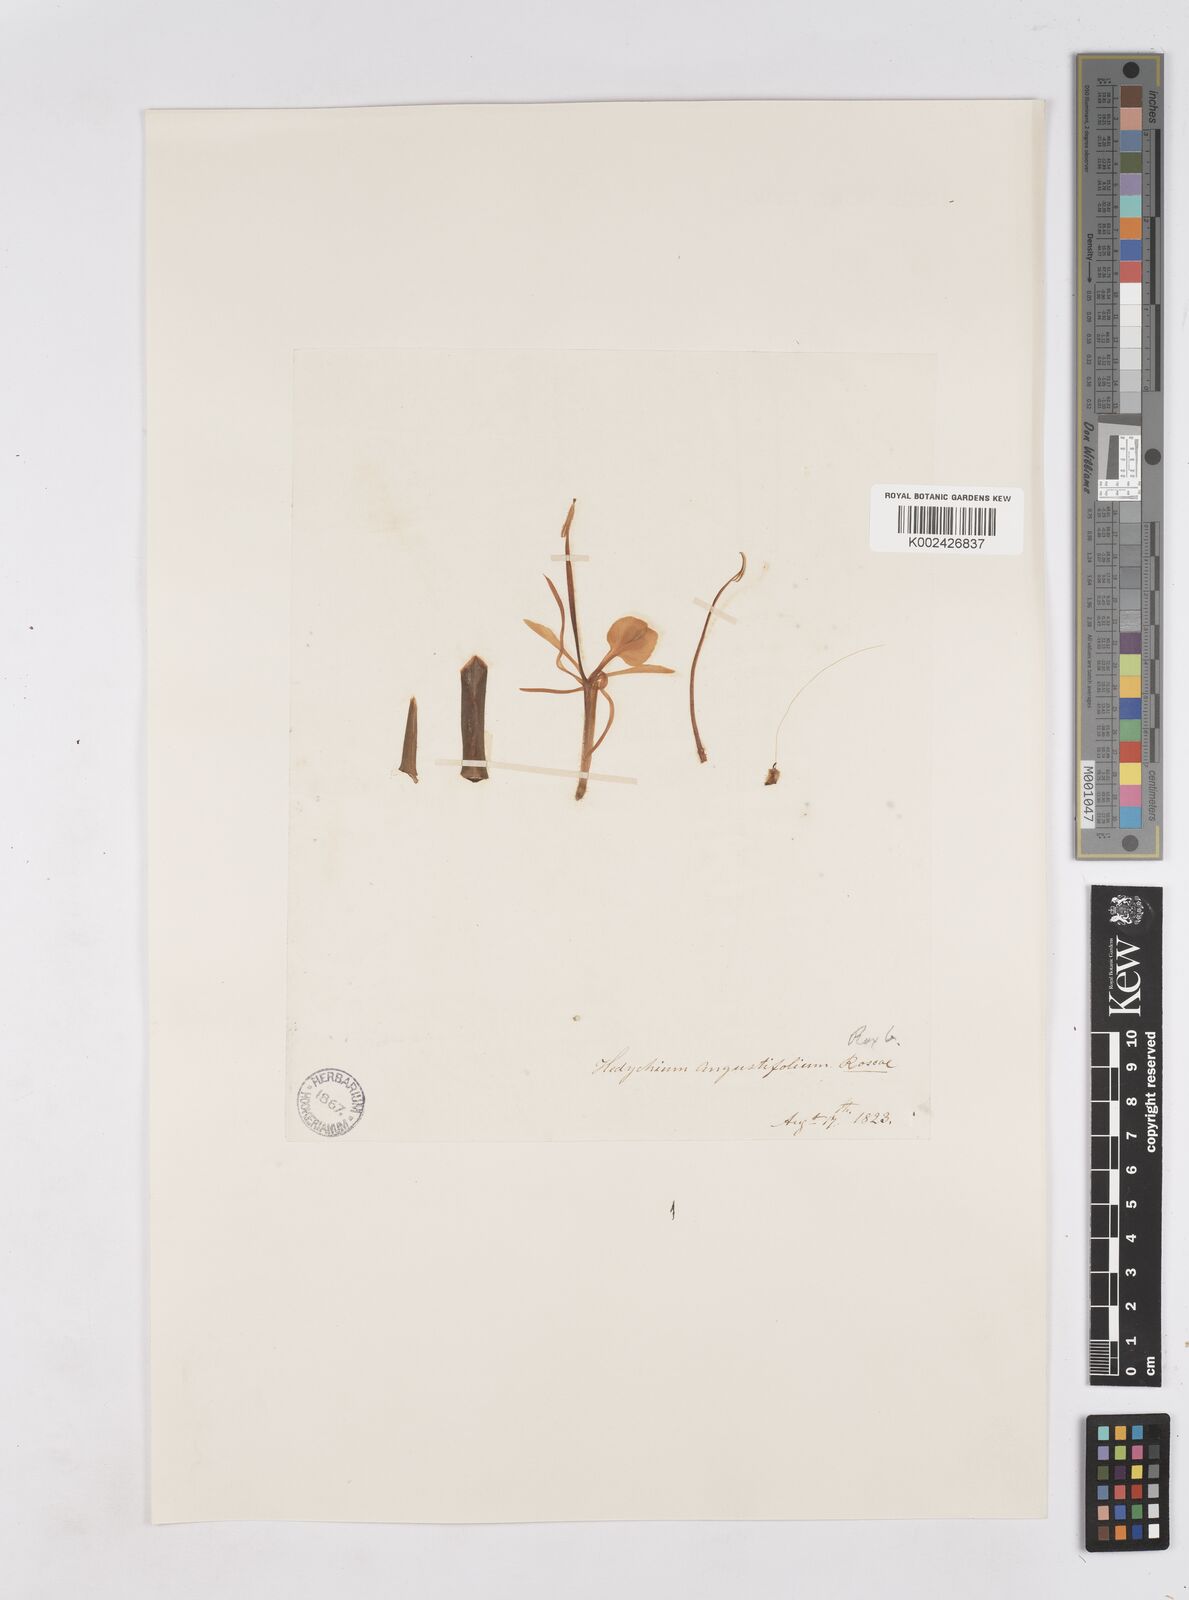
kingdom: Plantae
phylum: Tracheophyta
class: Liliopsida
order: Zingiberales
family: Zingiberaceae
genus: Hedychium
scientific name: Hedychium coccineum
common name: Red ginger-lily
